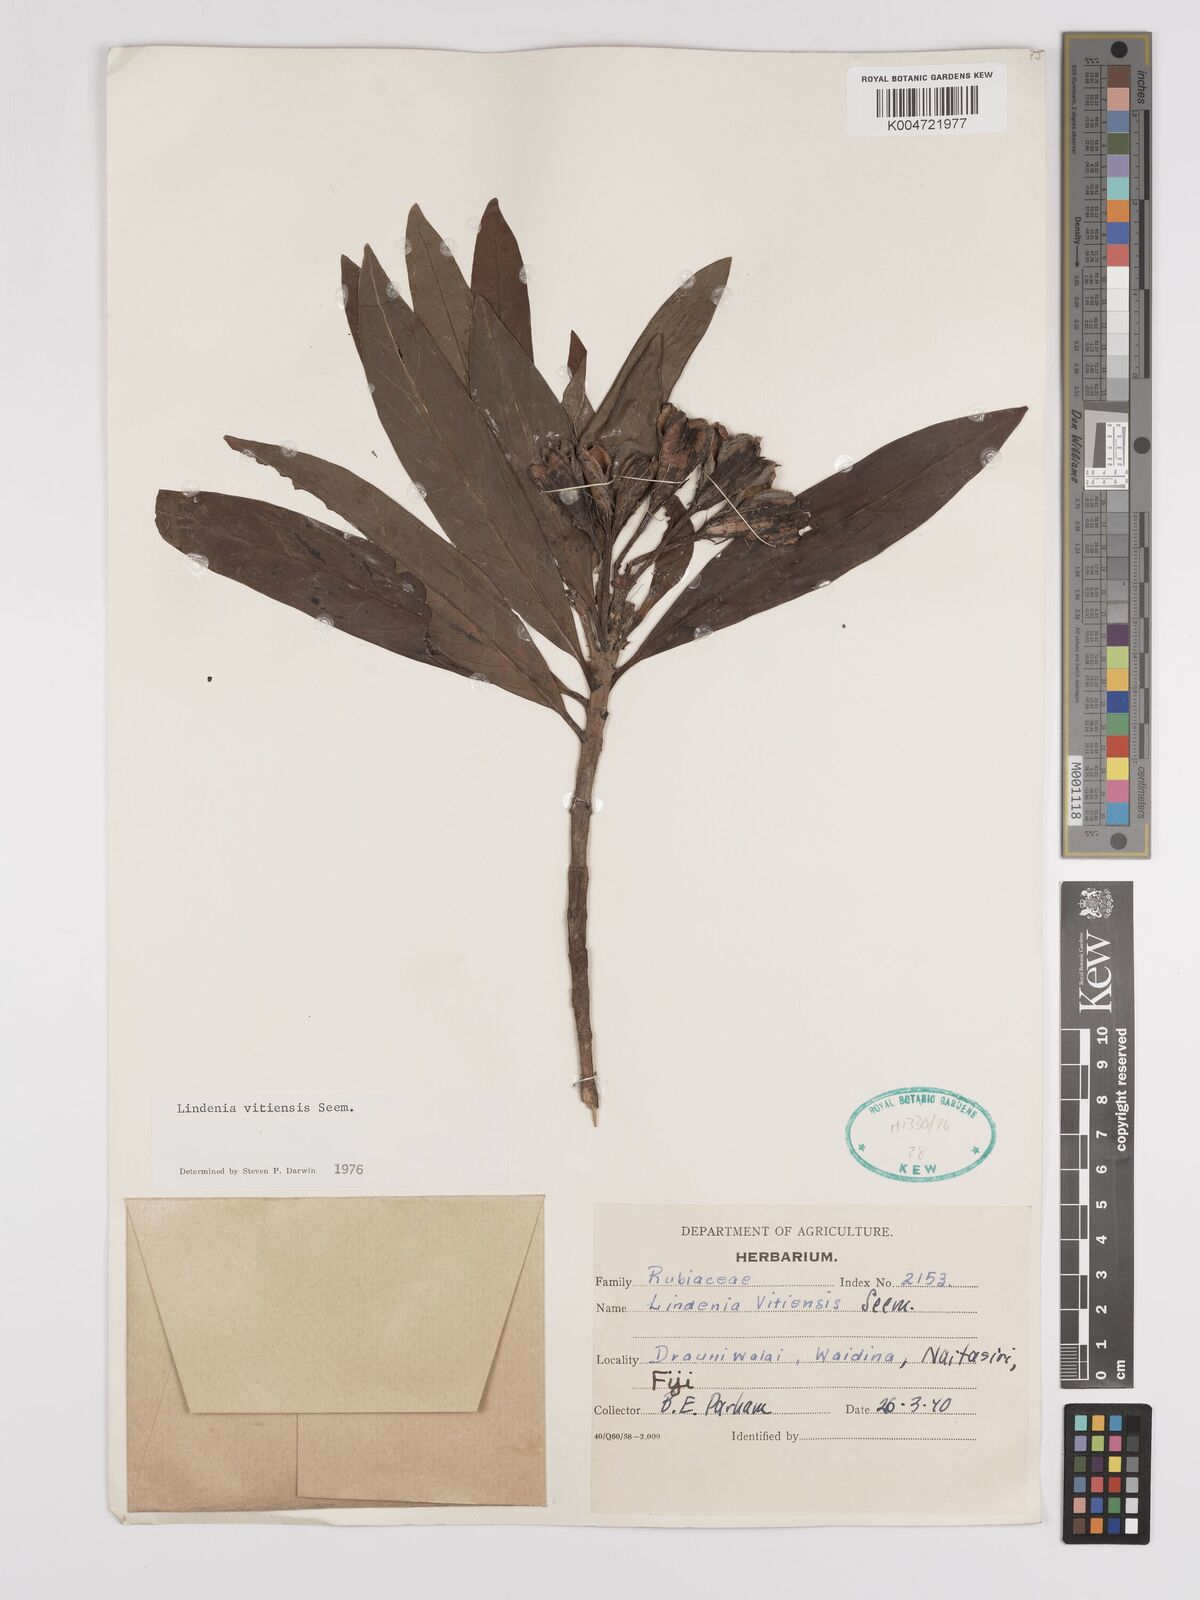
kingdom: Plantae
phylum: Tracheophyta
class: Magnoliopsida
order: Gentianales
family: Rubiaceae
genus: Augusta
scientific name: Augusta vitiensis
